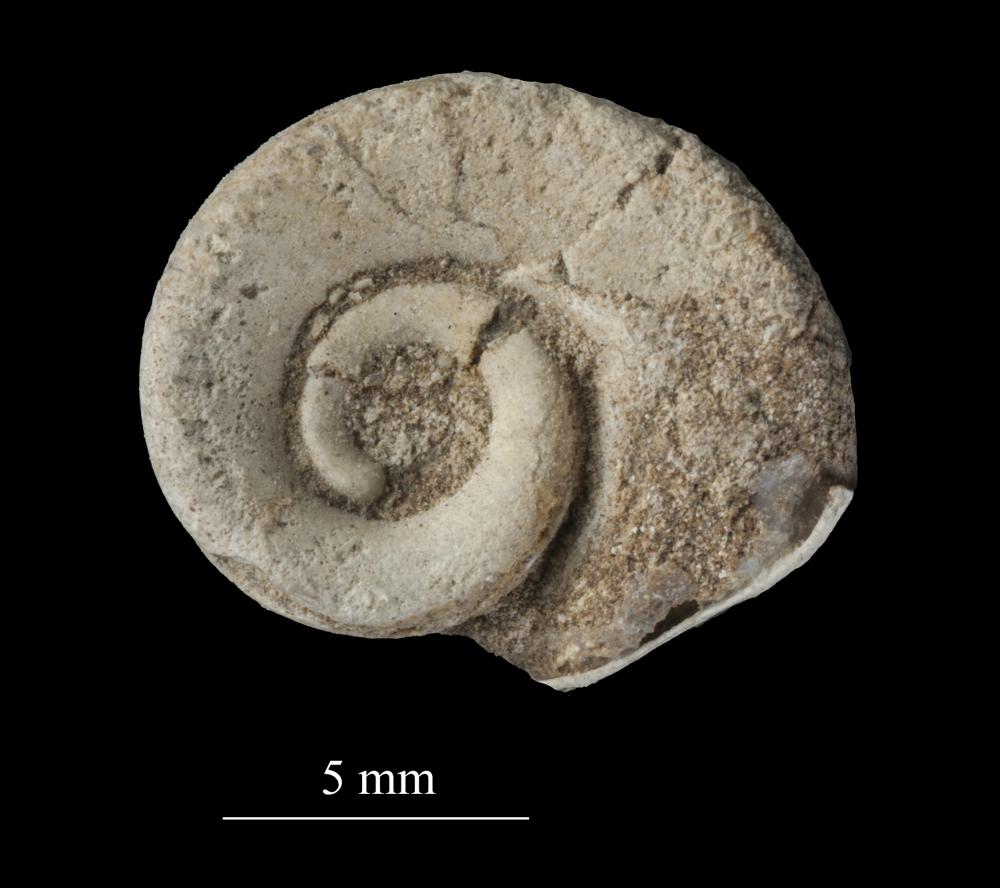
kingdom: Animalia
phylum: Mollusca
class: Gastropoda
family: Euomphalidae
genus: Euomphalus
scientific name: Euomphalus
